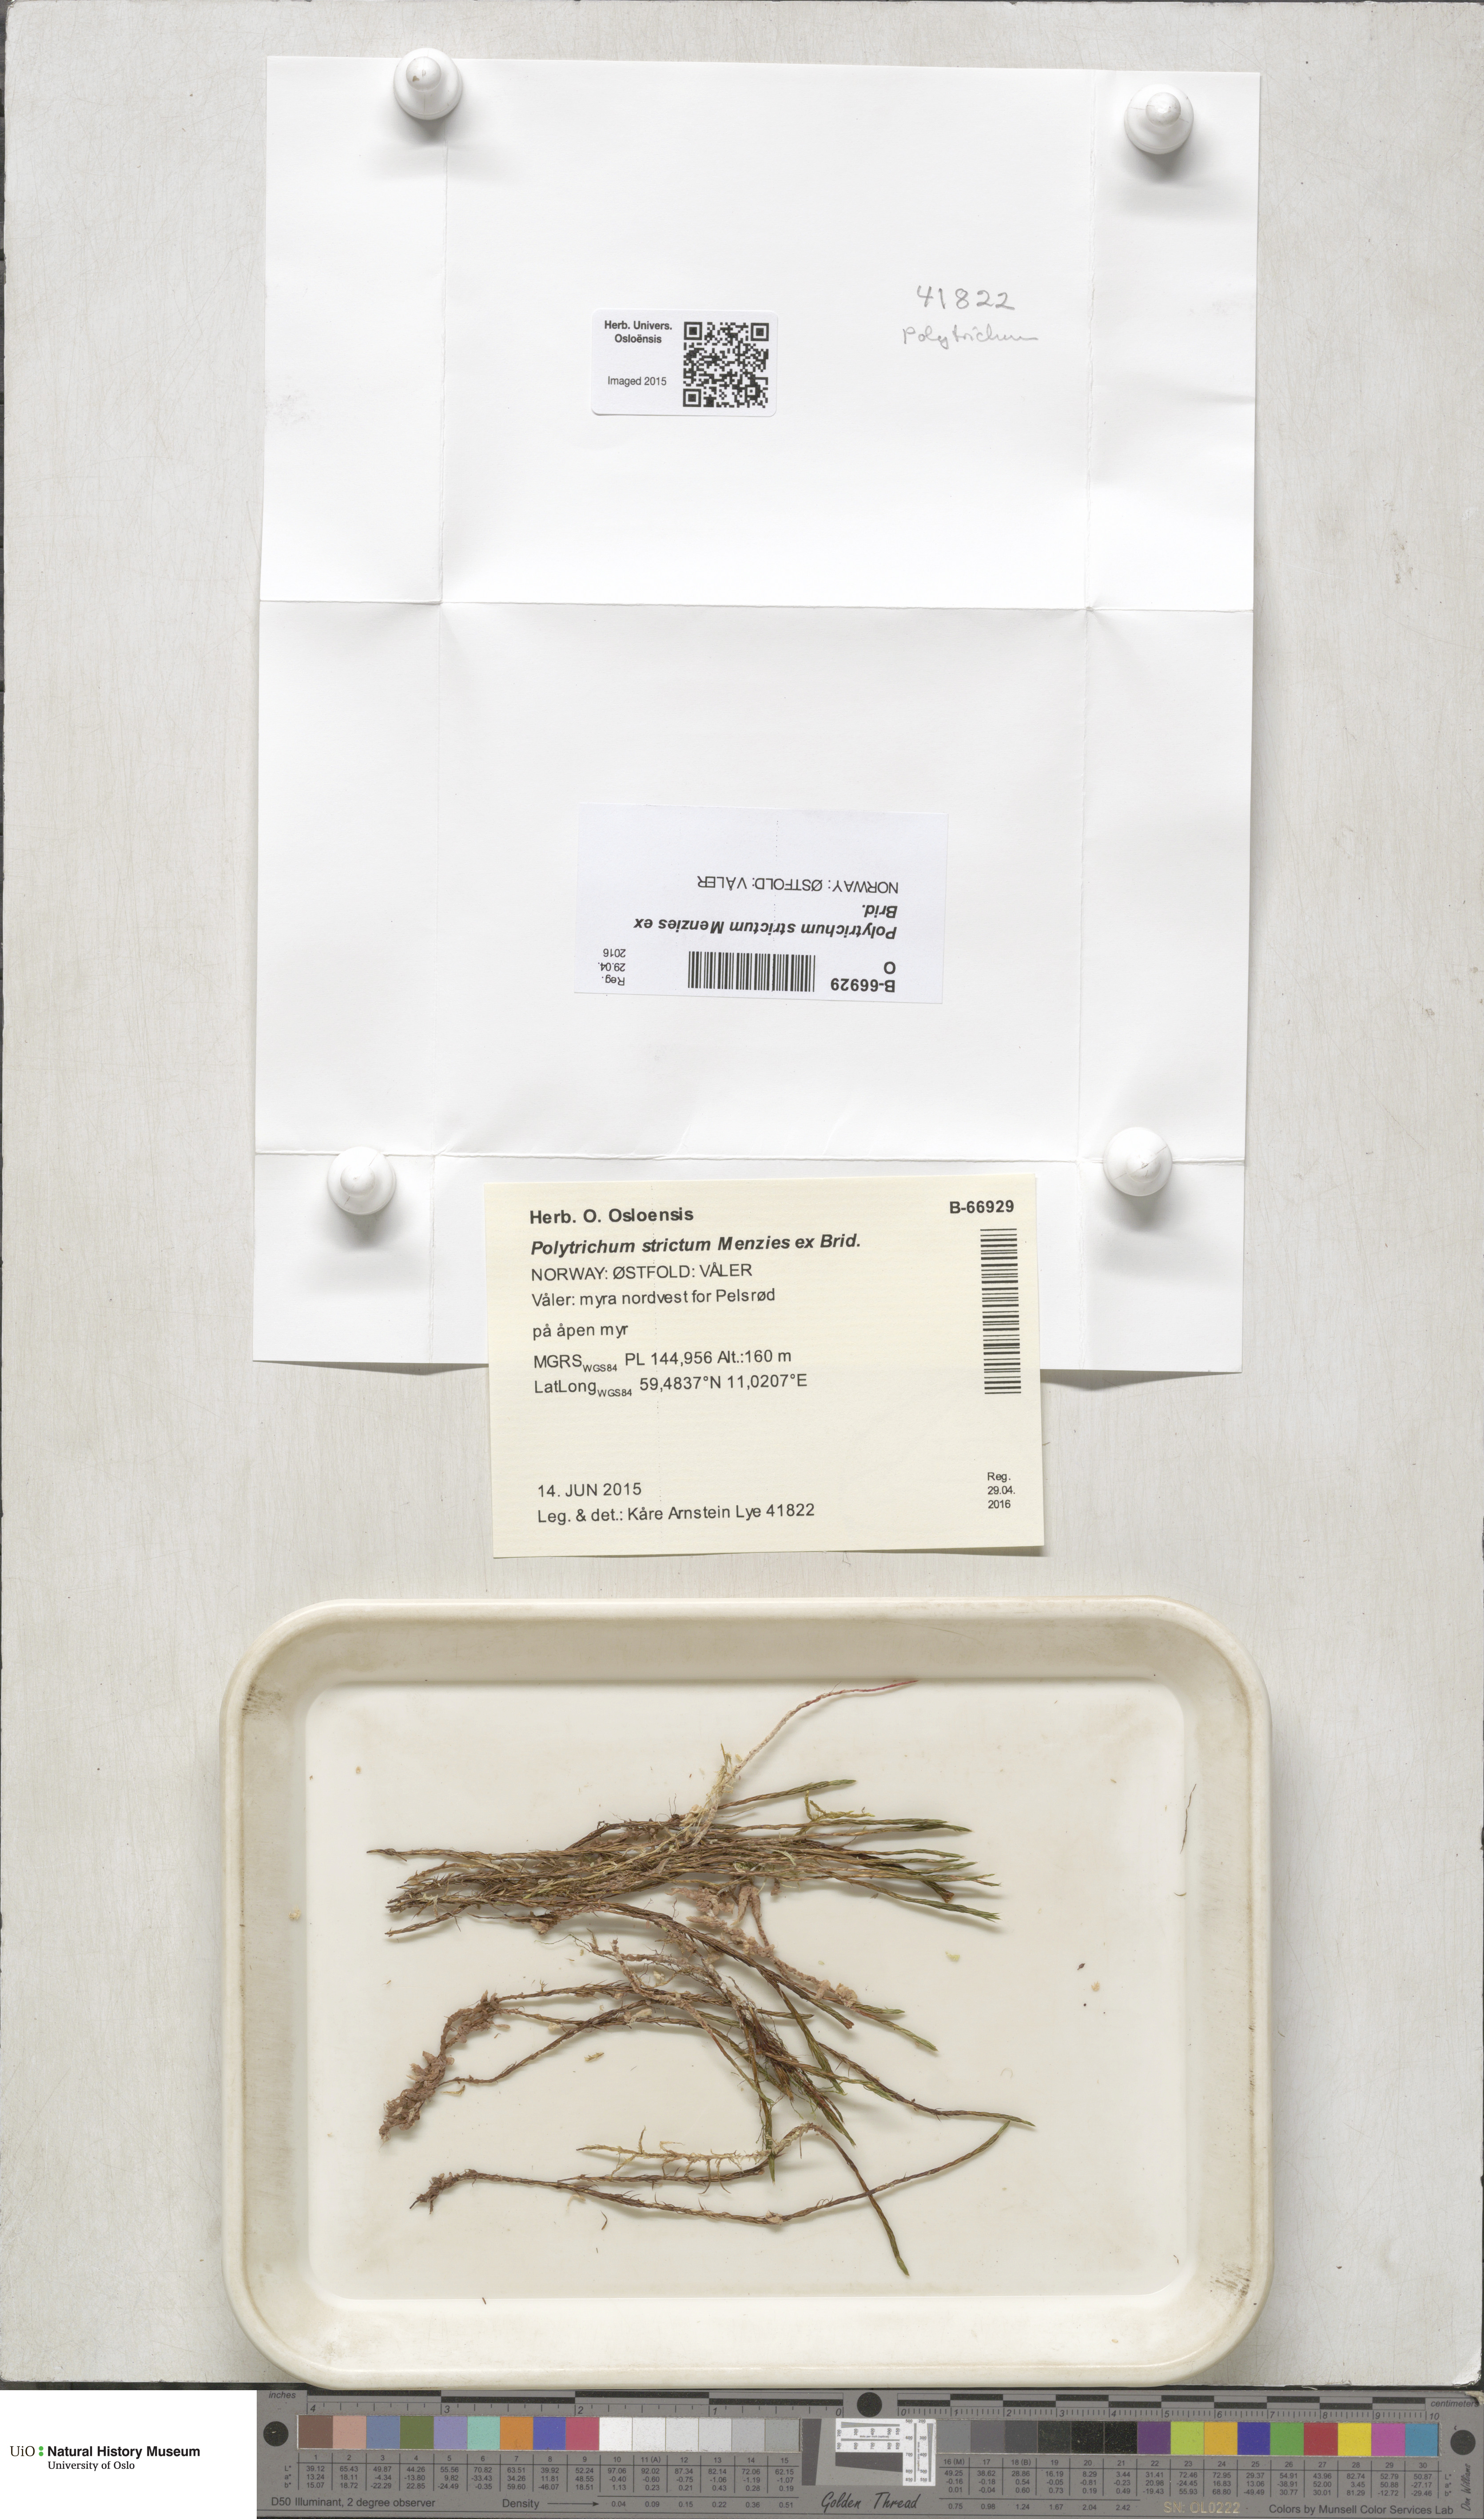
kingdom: Plantae
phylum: Bryophyta
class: Polytrichopsida
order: Polytrichales
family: Polytrichaceae
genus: Polytrichum
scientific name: Polytrichum strictum
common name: Bog haircap moss
